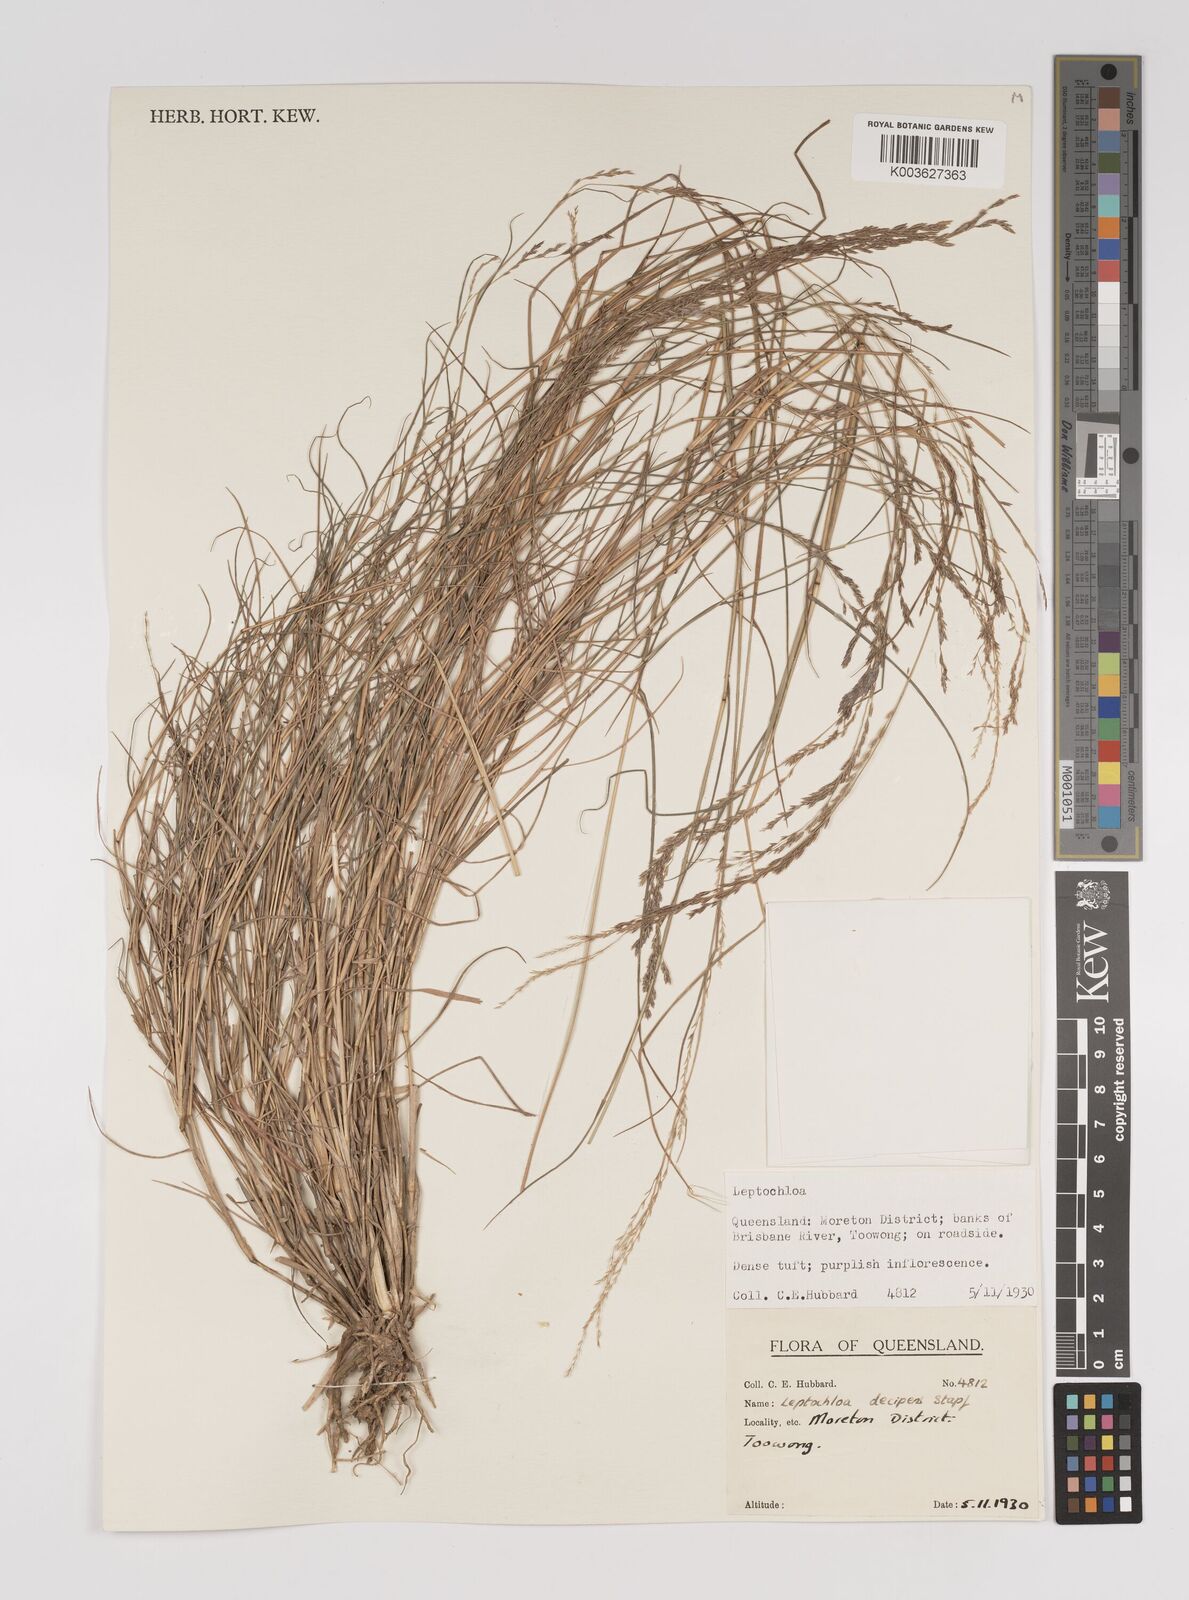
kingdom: Plantae
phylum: Tracheophyta
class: Liliopsida
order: Poales
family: Poaceae
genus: Leptochloa
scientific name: Leptochloa decipiens
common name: Australian sprangletop
